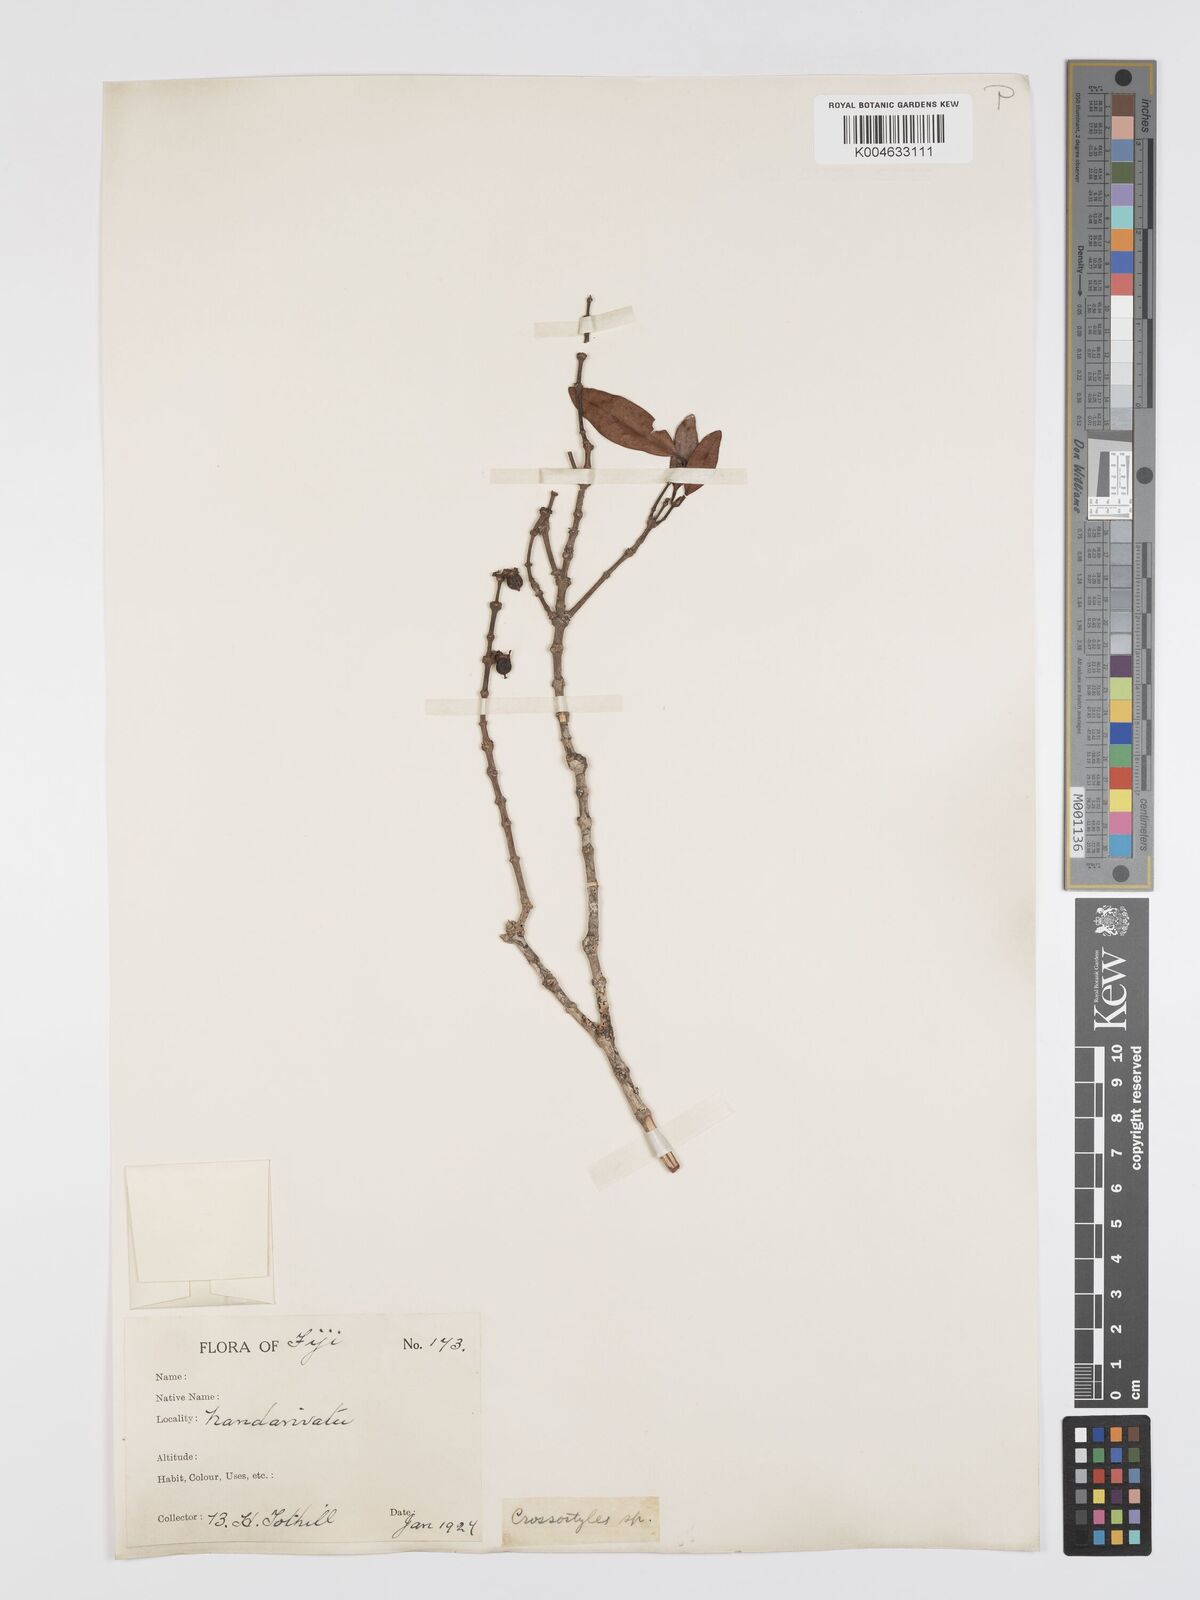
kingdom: Plantae
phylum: Tracheophyta
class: Magnoliopsida
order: Malpighiales
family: Rhizophoraceae
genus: Crossostylis
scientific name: Crossostylis richii
